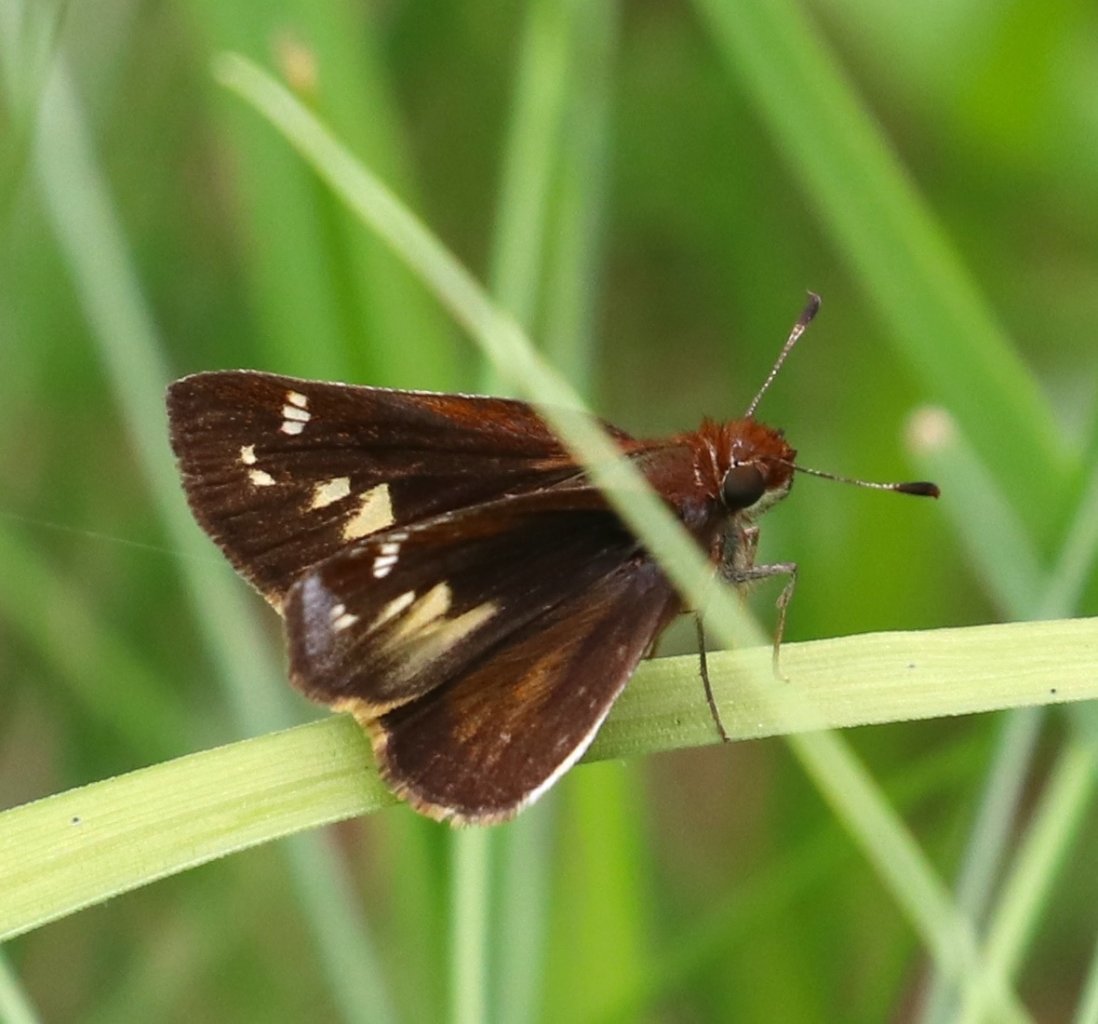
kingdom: Animalia
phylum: Arthropoda
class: Insecta
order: Lepidoptera
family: Hesperiidae
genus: Lon
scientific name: Lon zabulon
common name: Zabulon Skipper
